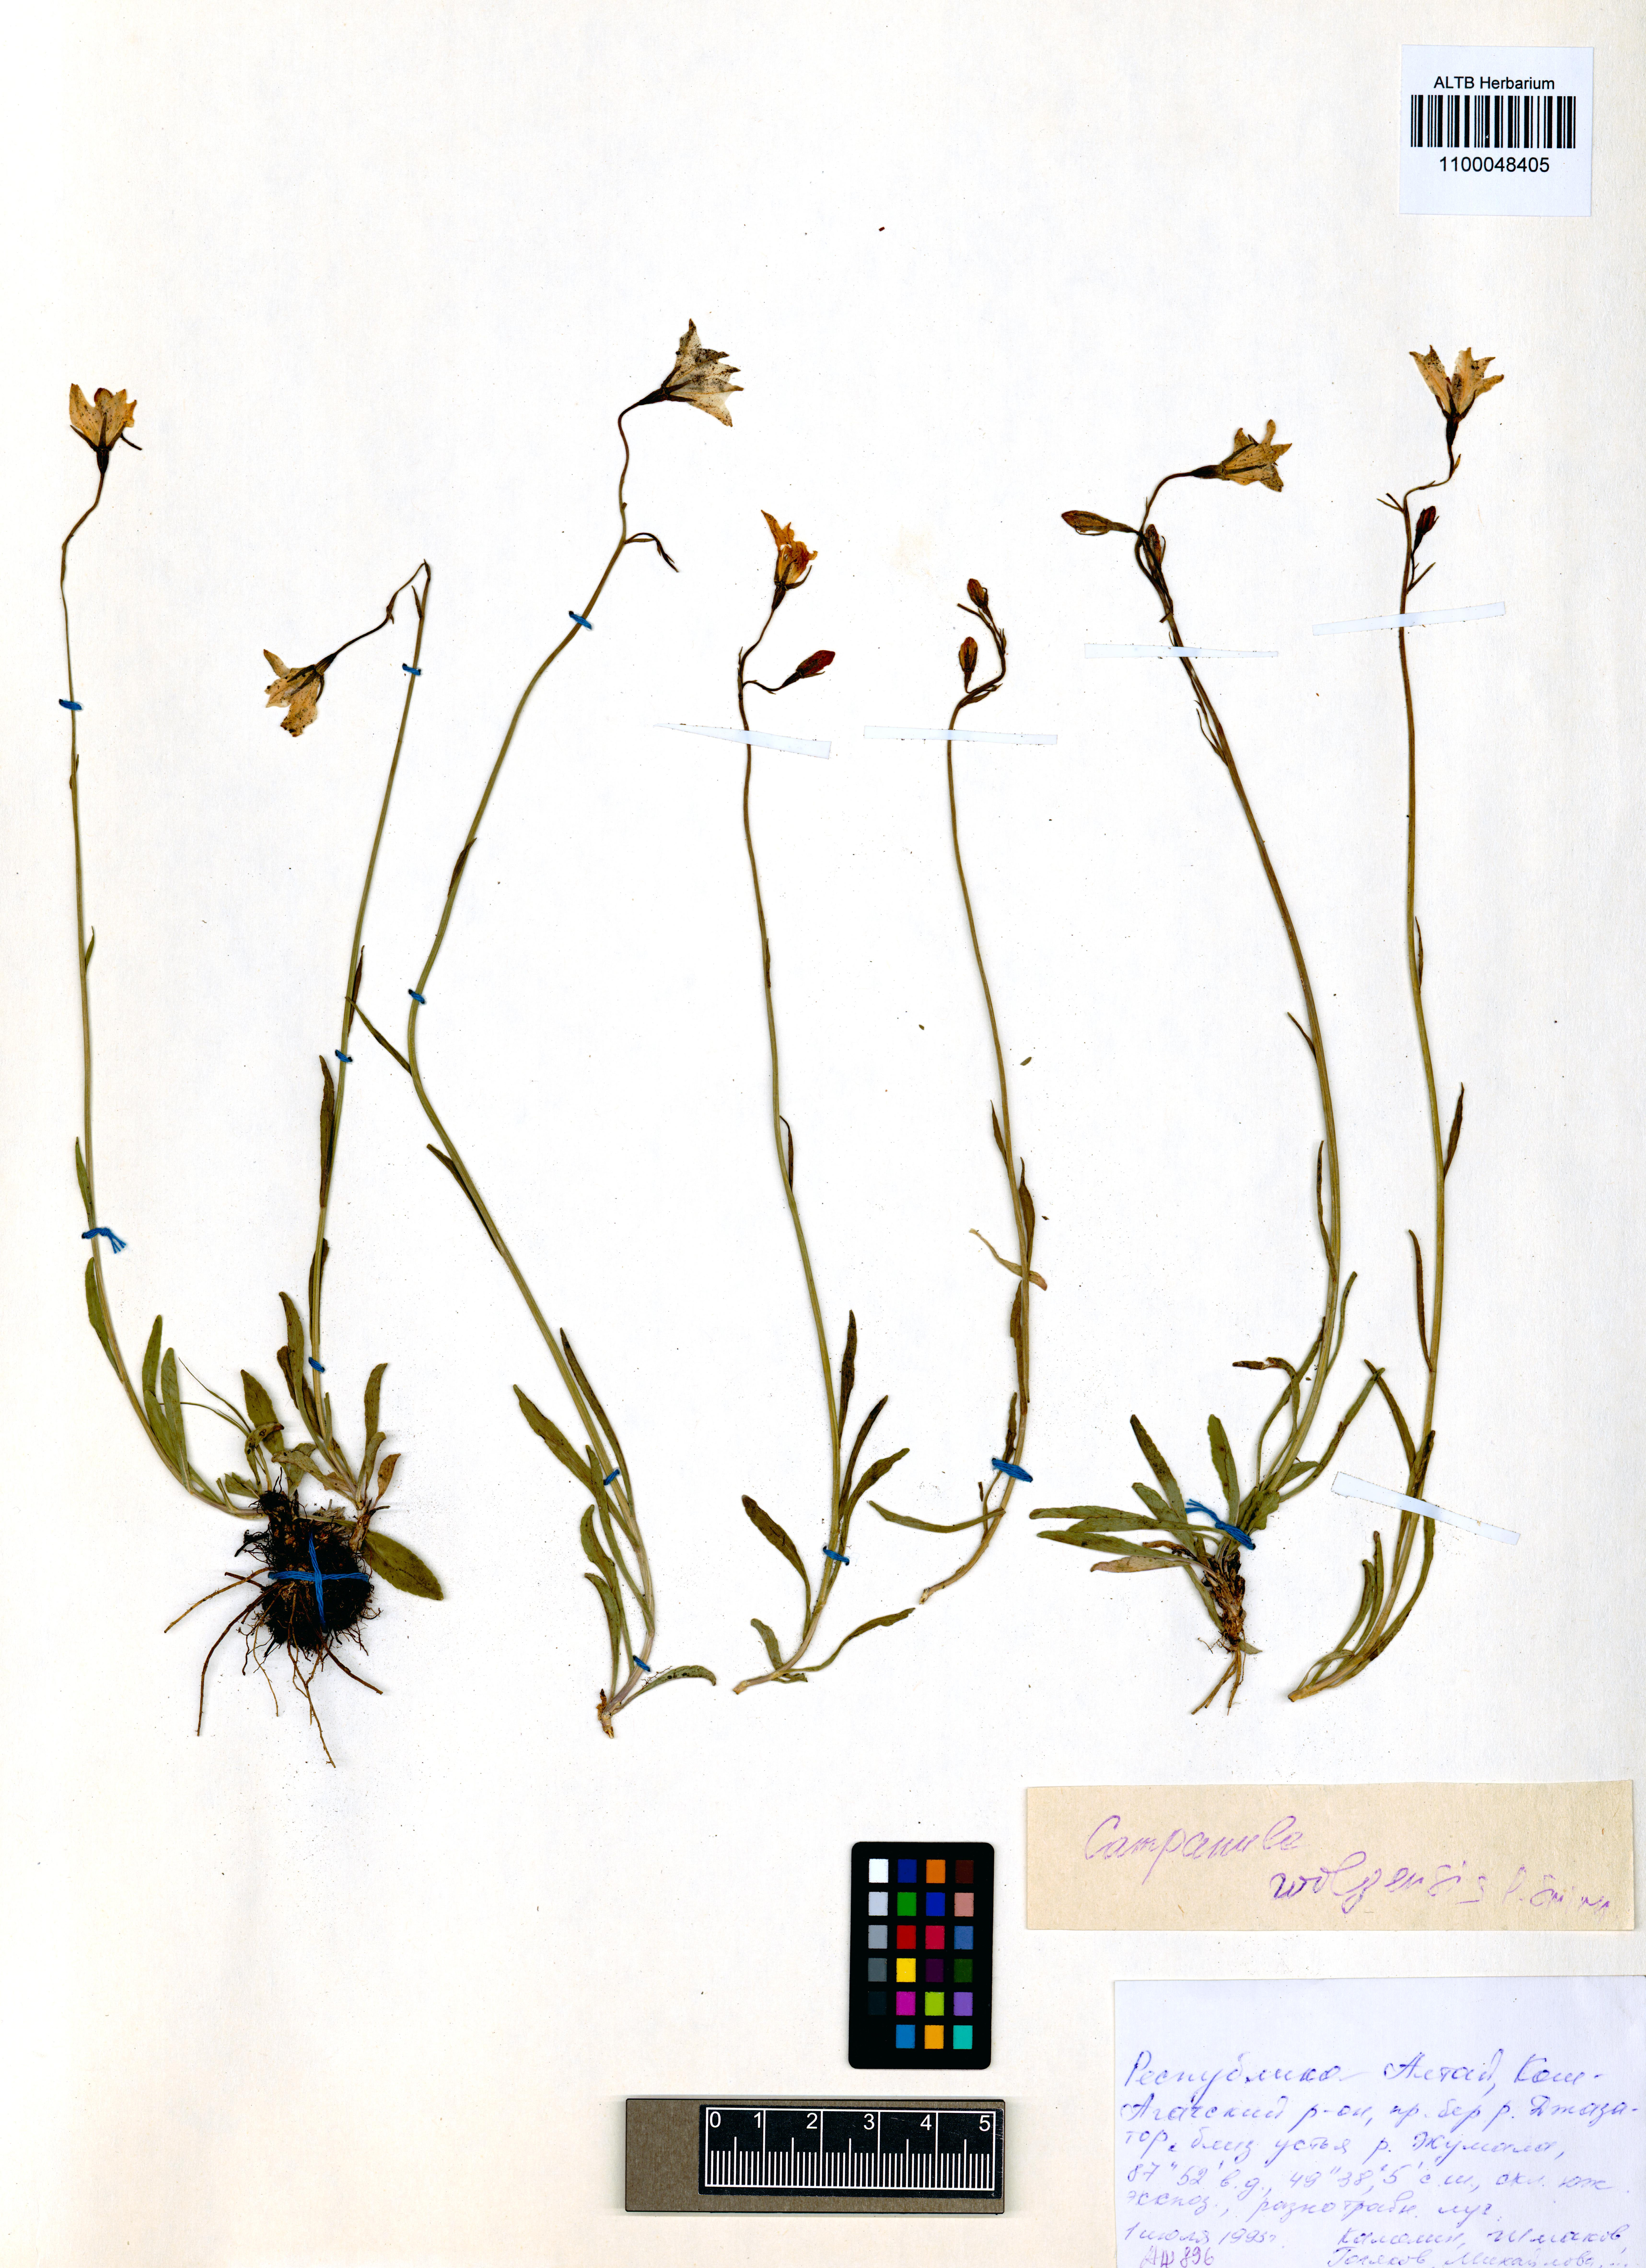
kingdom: Plantae
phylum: Tracheophyta
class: Magnoliopsida
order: Asterales
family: Campanulaceae
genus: Campanula
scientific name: Campanula stevenii
